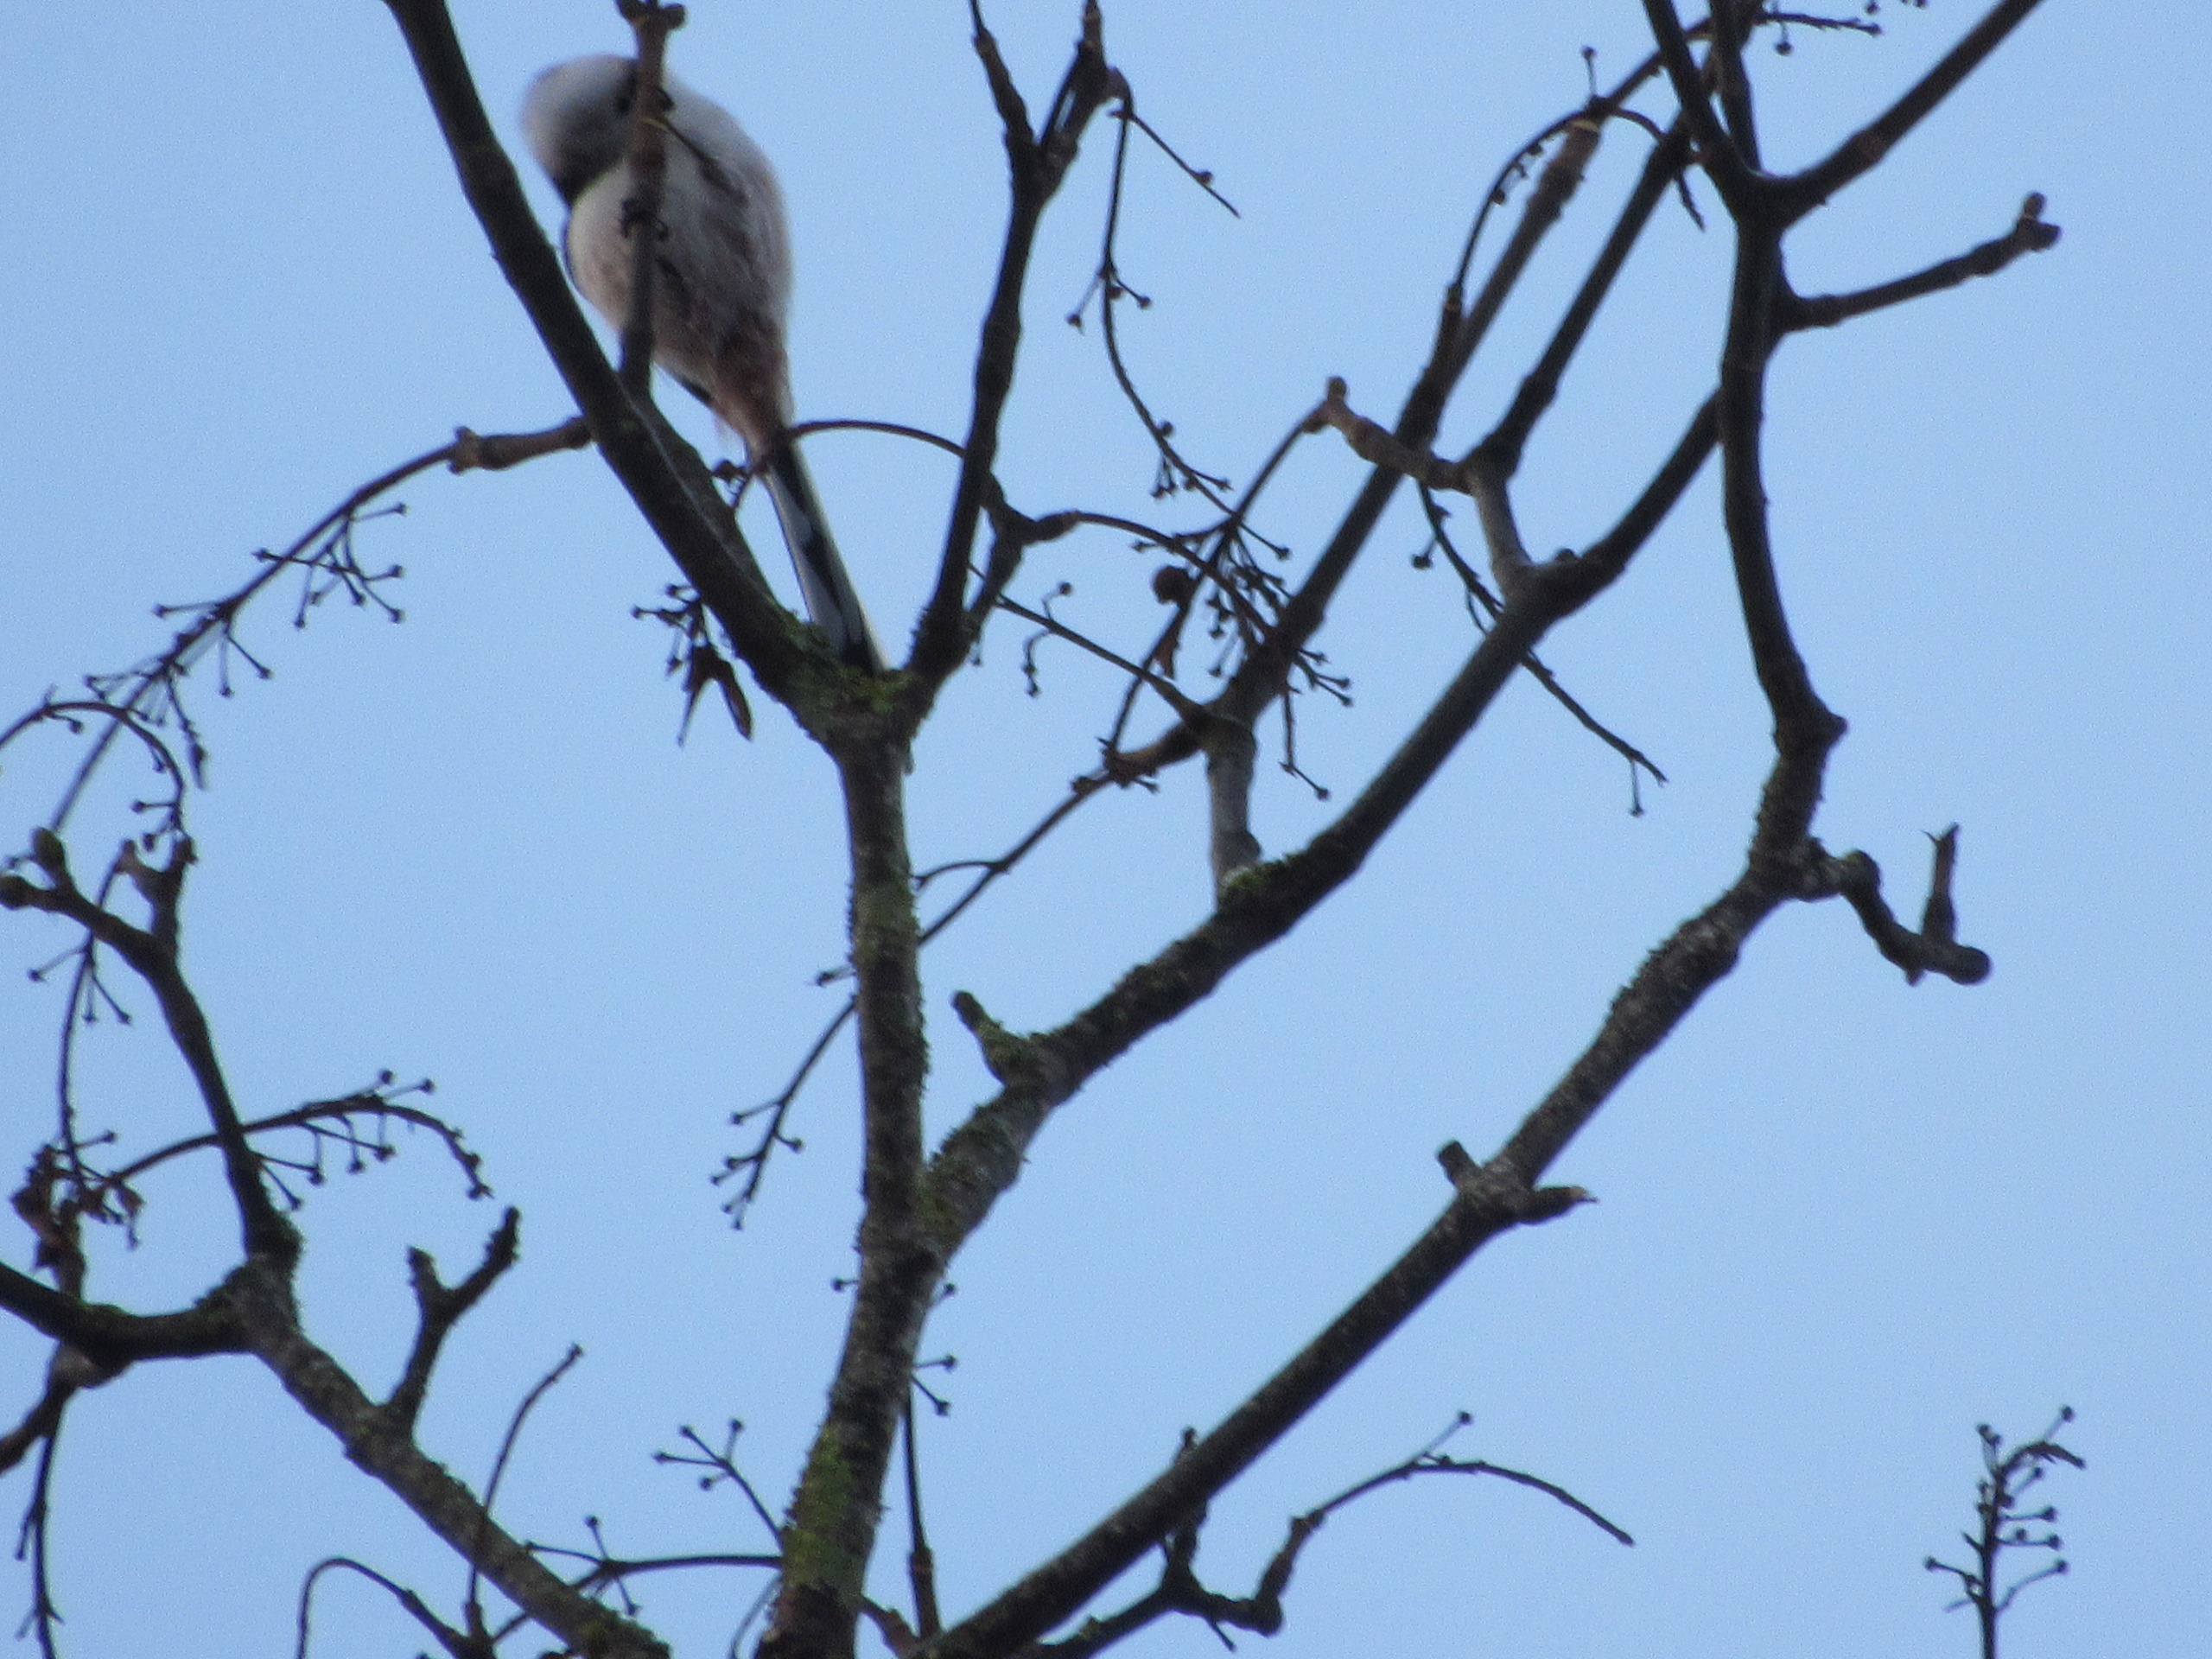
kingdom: Animalia
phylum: Chordata
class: Aves
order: Passeriformes
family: Aegithalidae
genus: Aegithalos
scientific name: Aegithalos caudatus
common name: Halemejse
